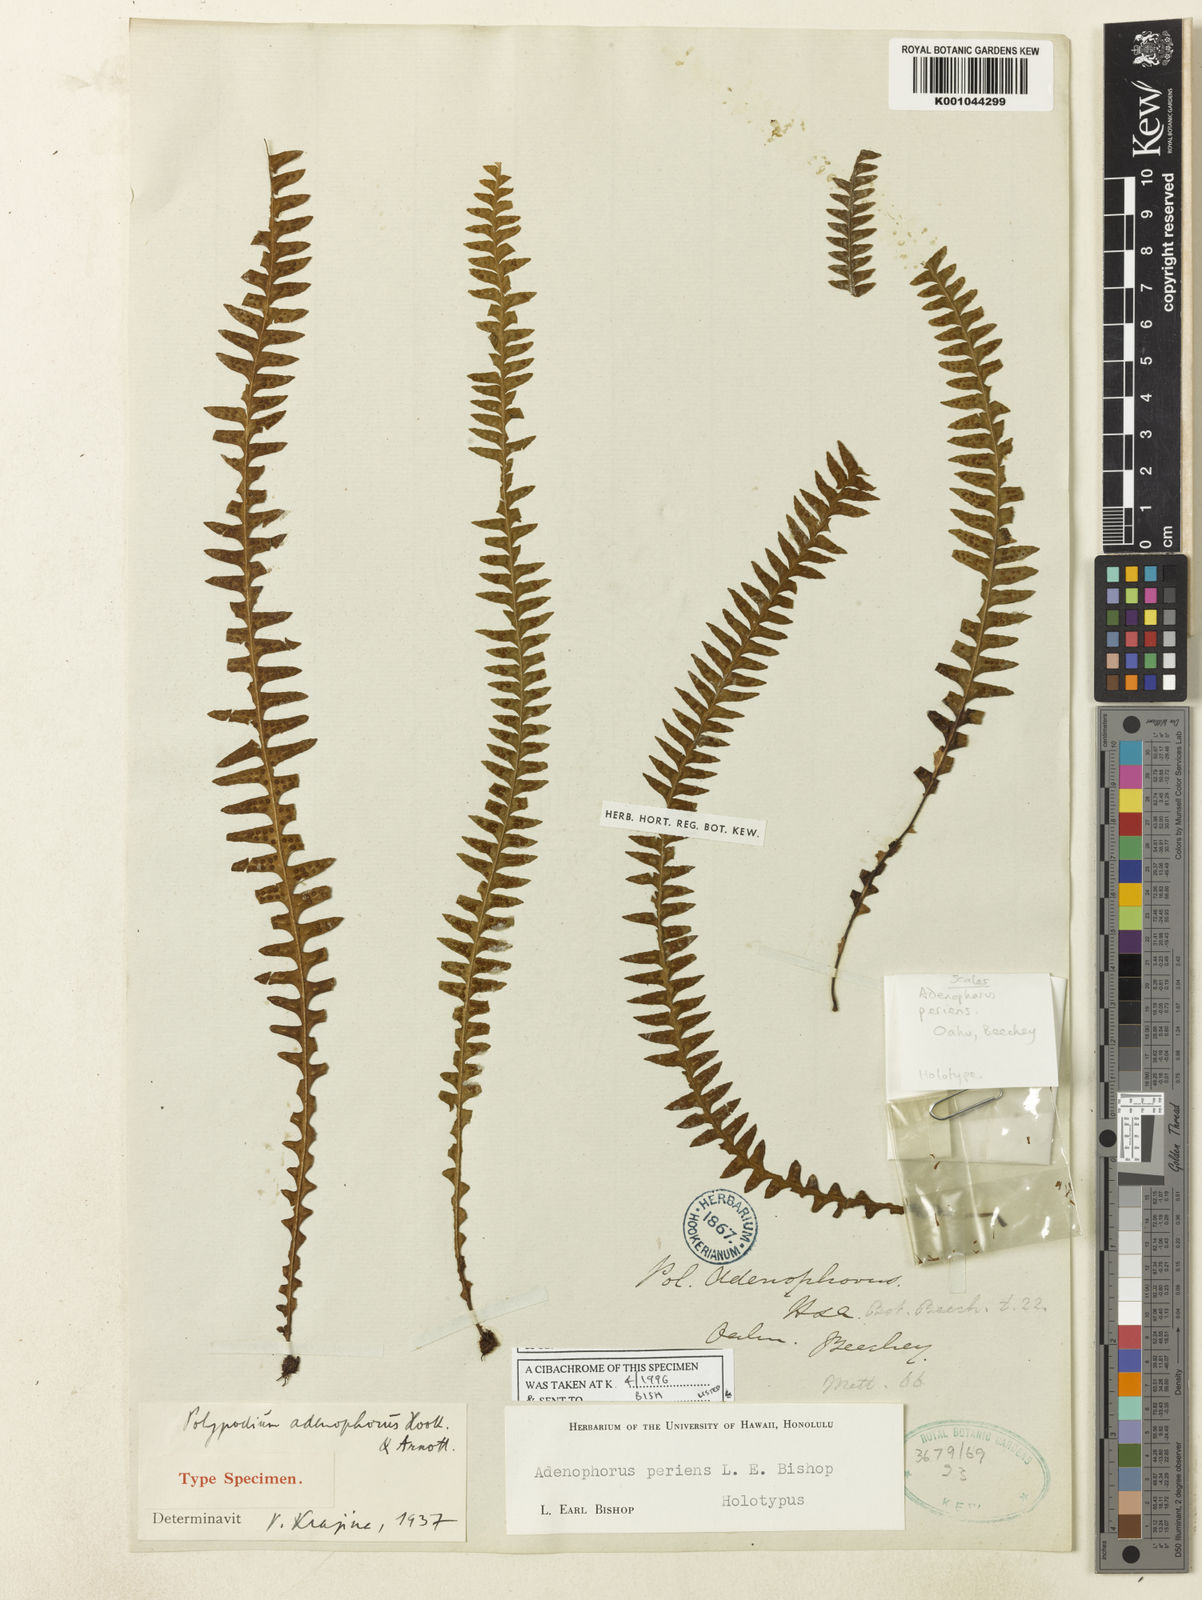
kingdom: Plantae
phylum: Tracheophyta
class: Polypodiopsida
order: Polypodiales
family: Polypodiaceae
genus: Adenophorus
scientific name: Adenophorus periens
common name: Pendant kihi fern
